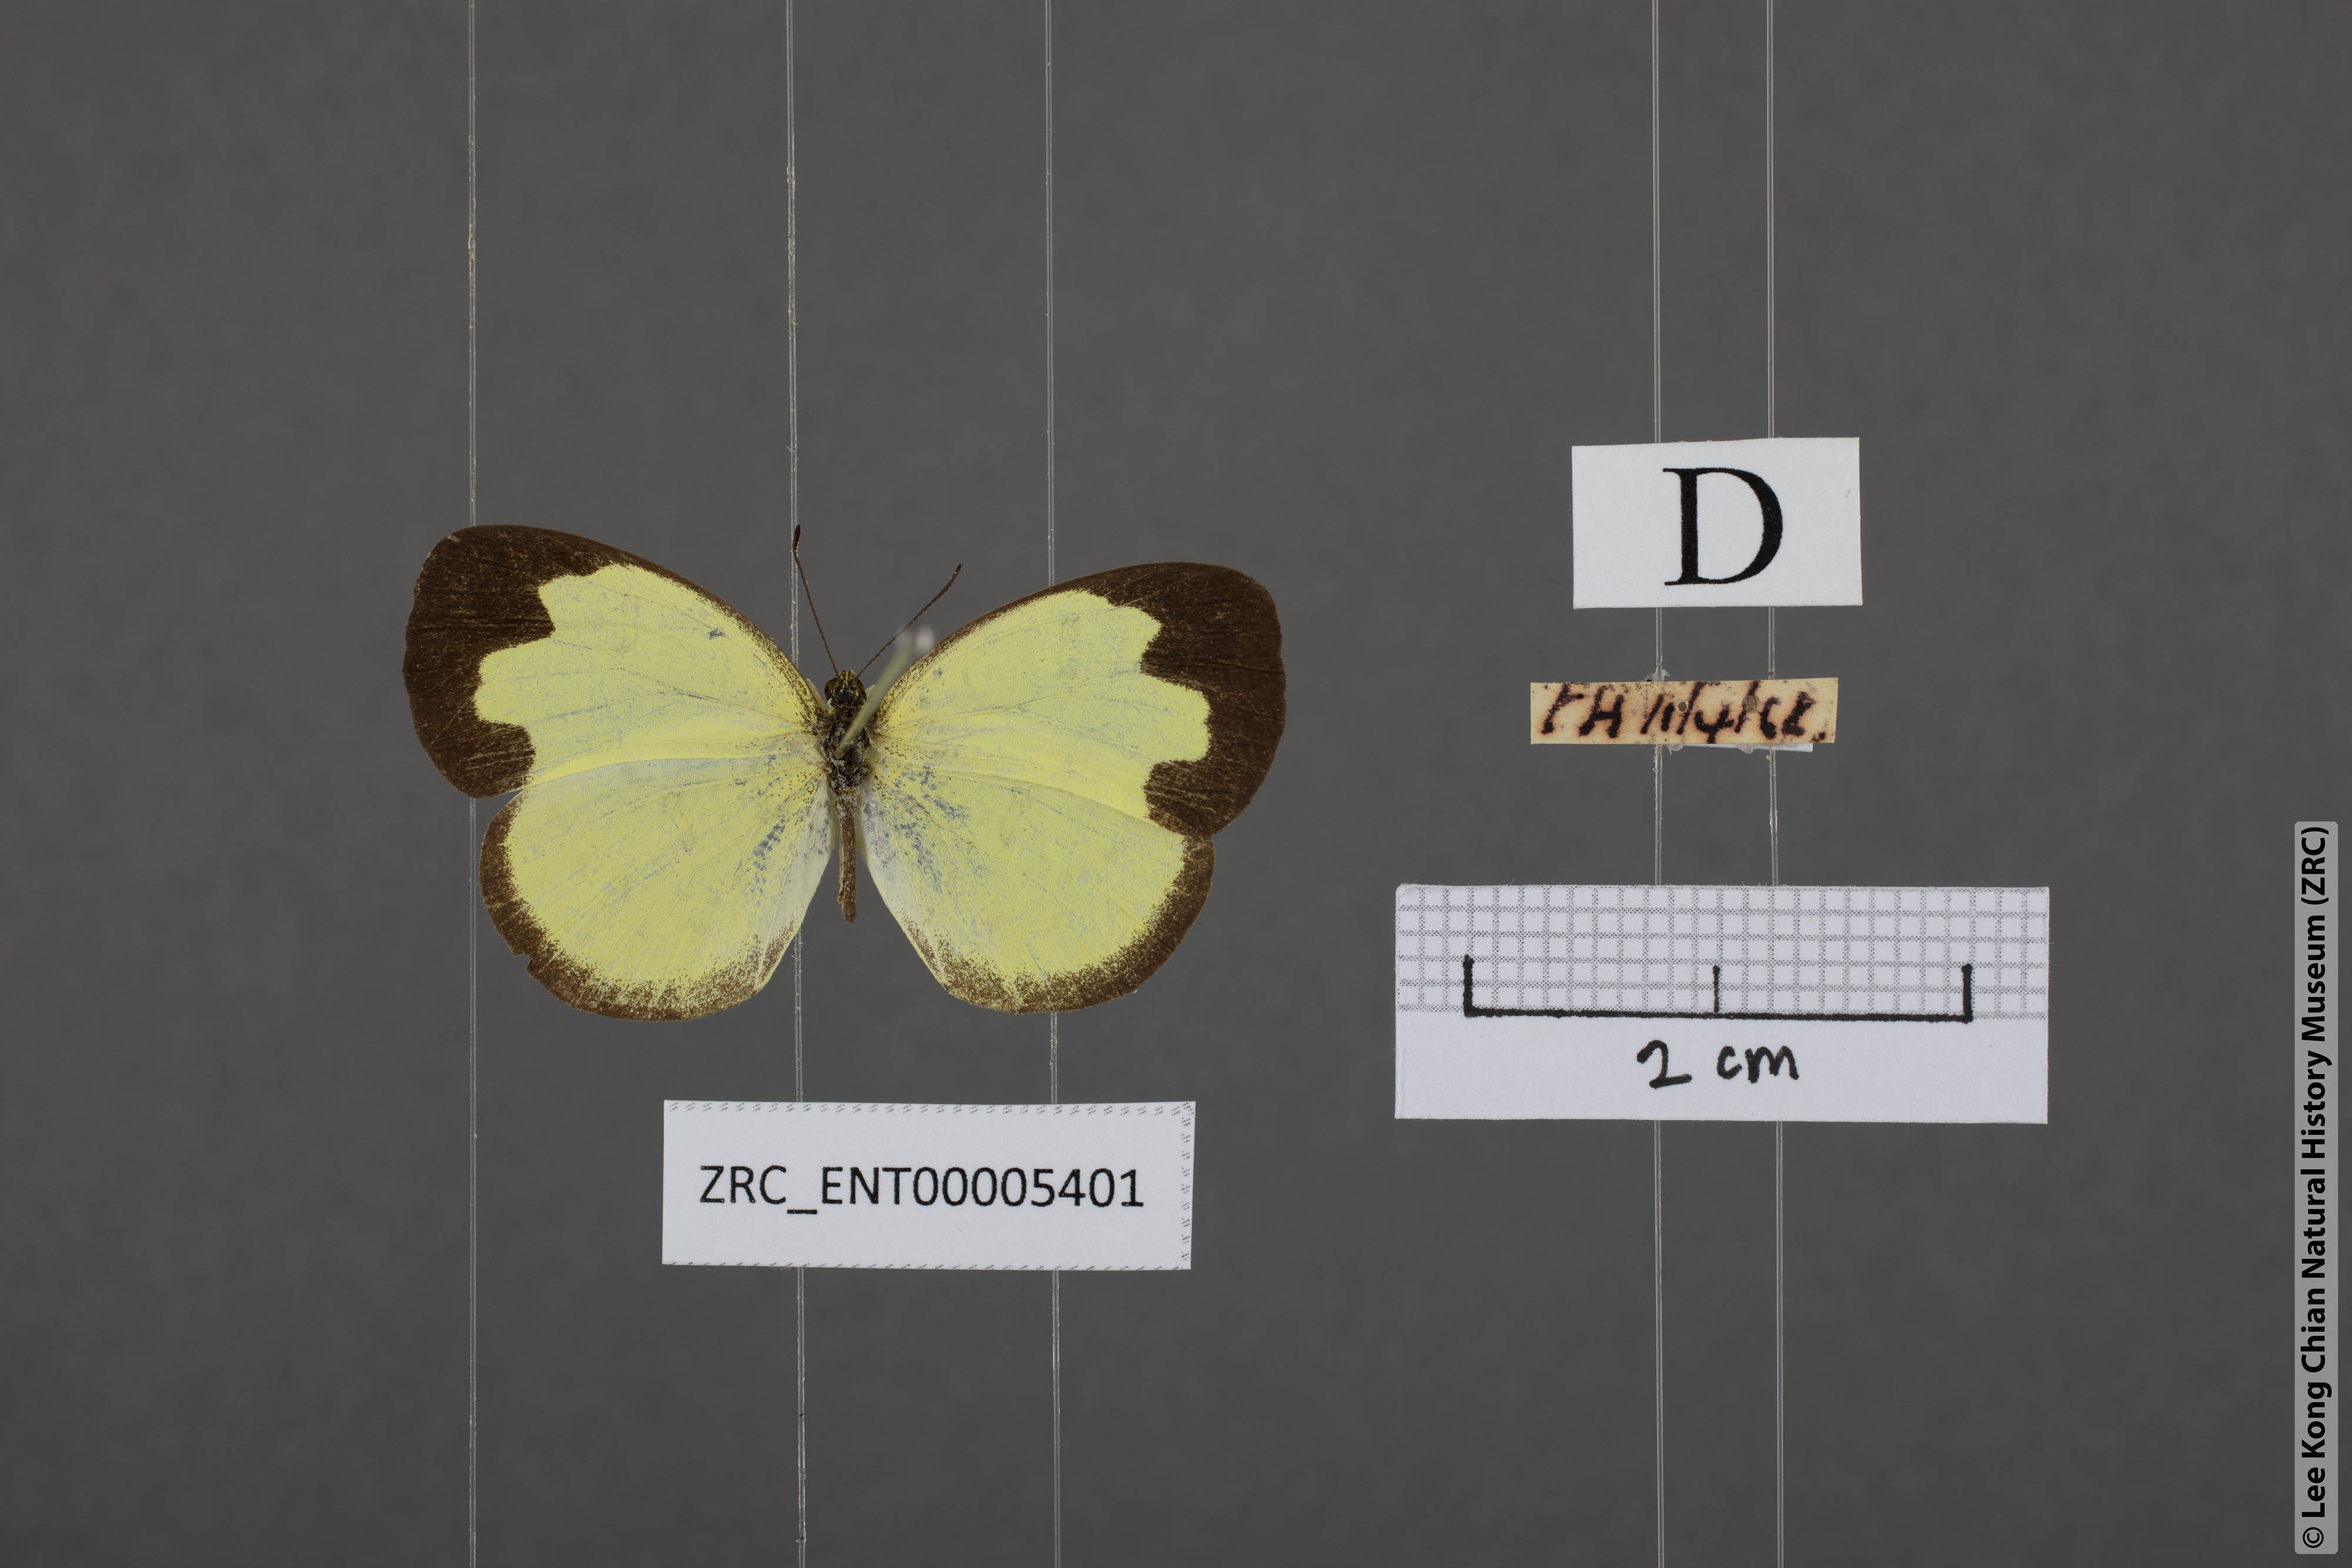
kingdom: Animalia
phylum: Arthropoda
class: Insecta
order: Lepidoptera
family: Pieridae
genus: Eurema
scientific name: Eurema ada
